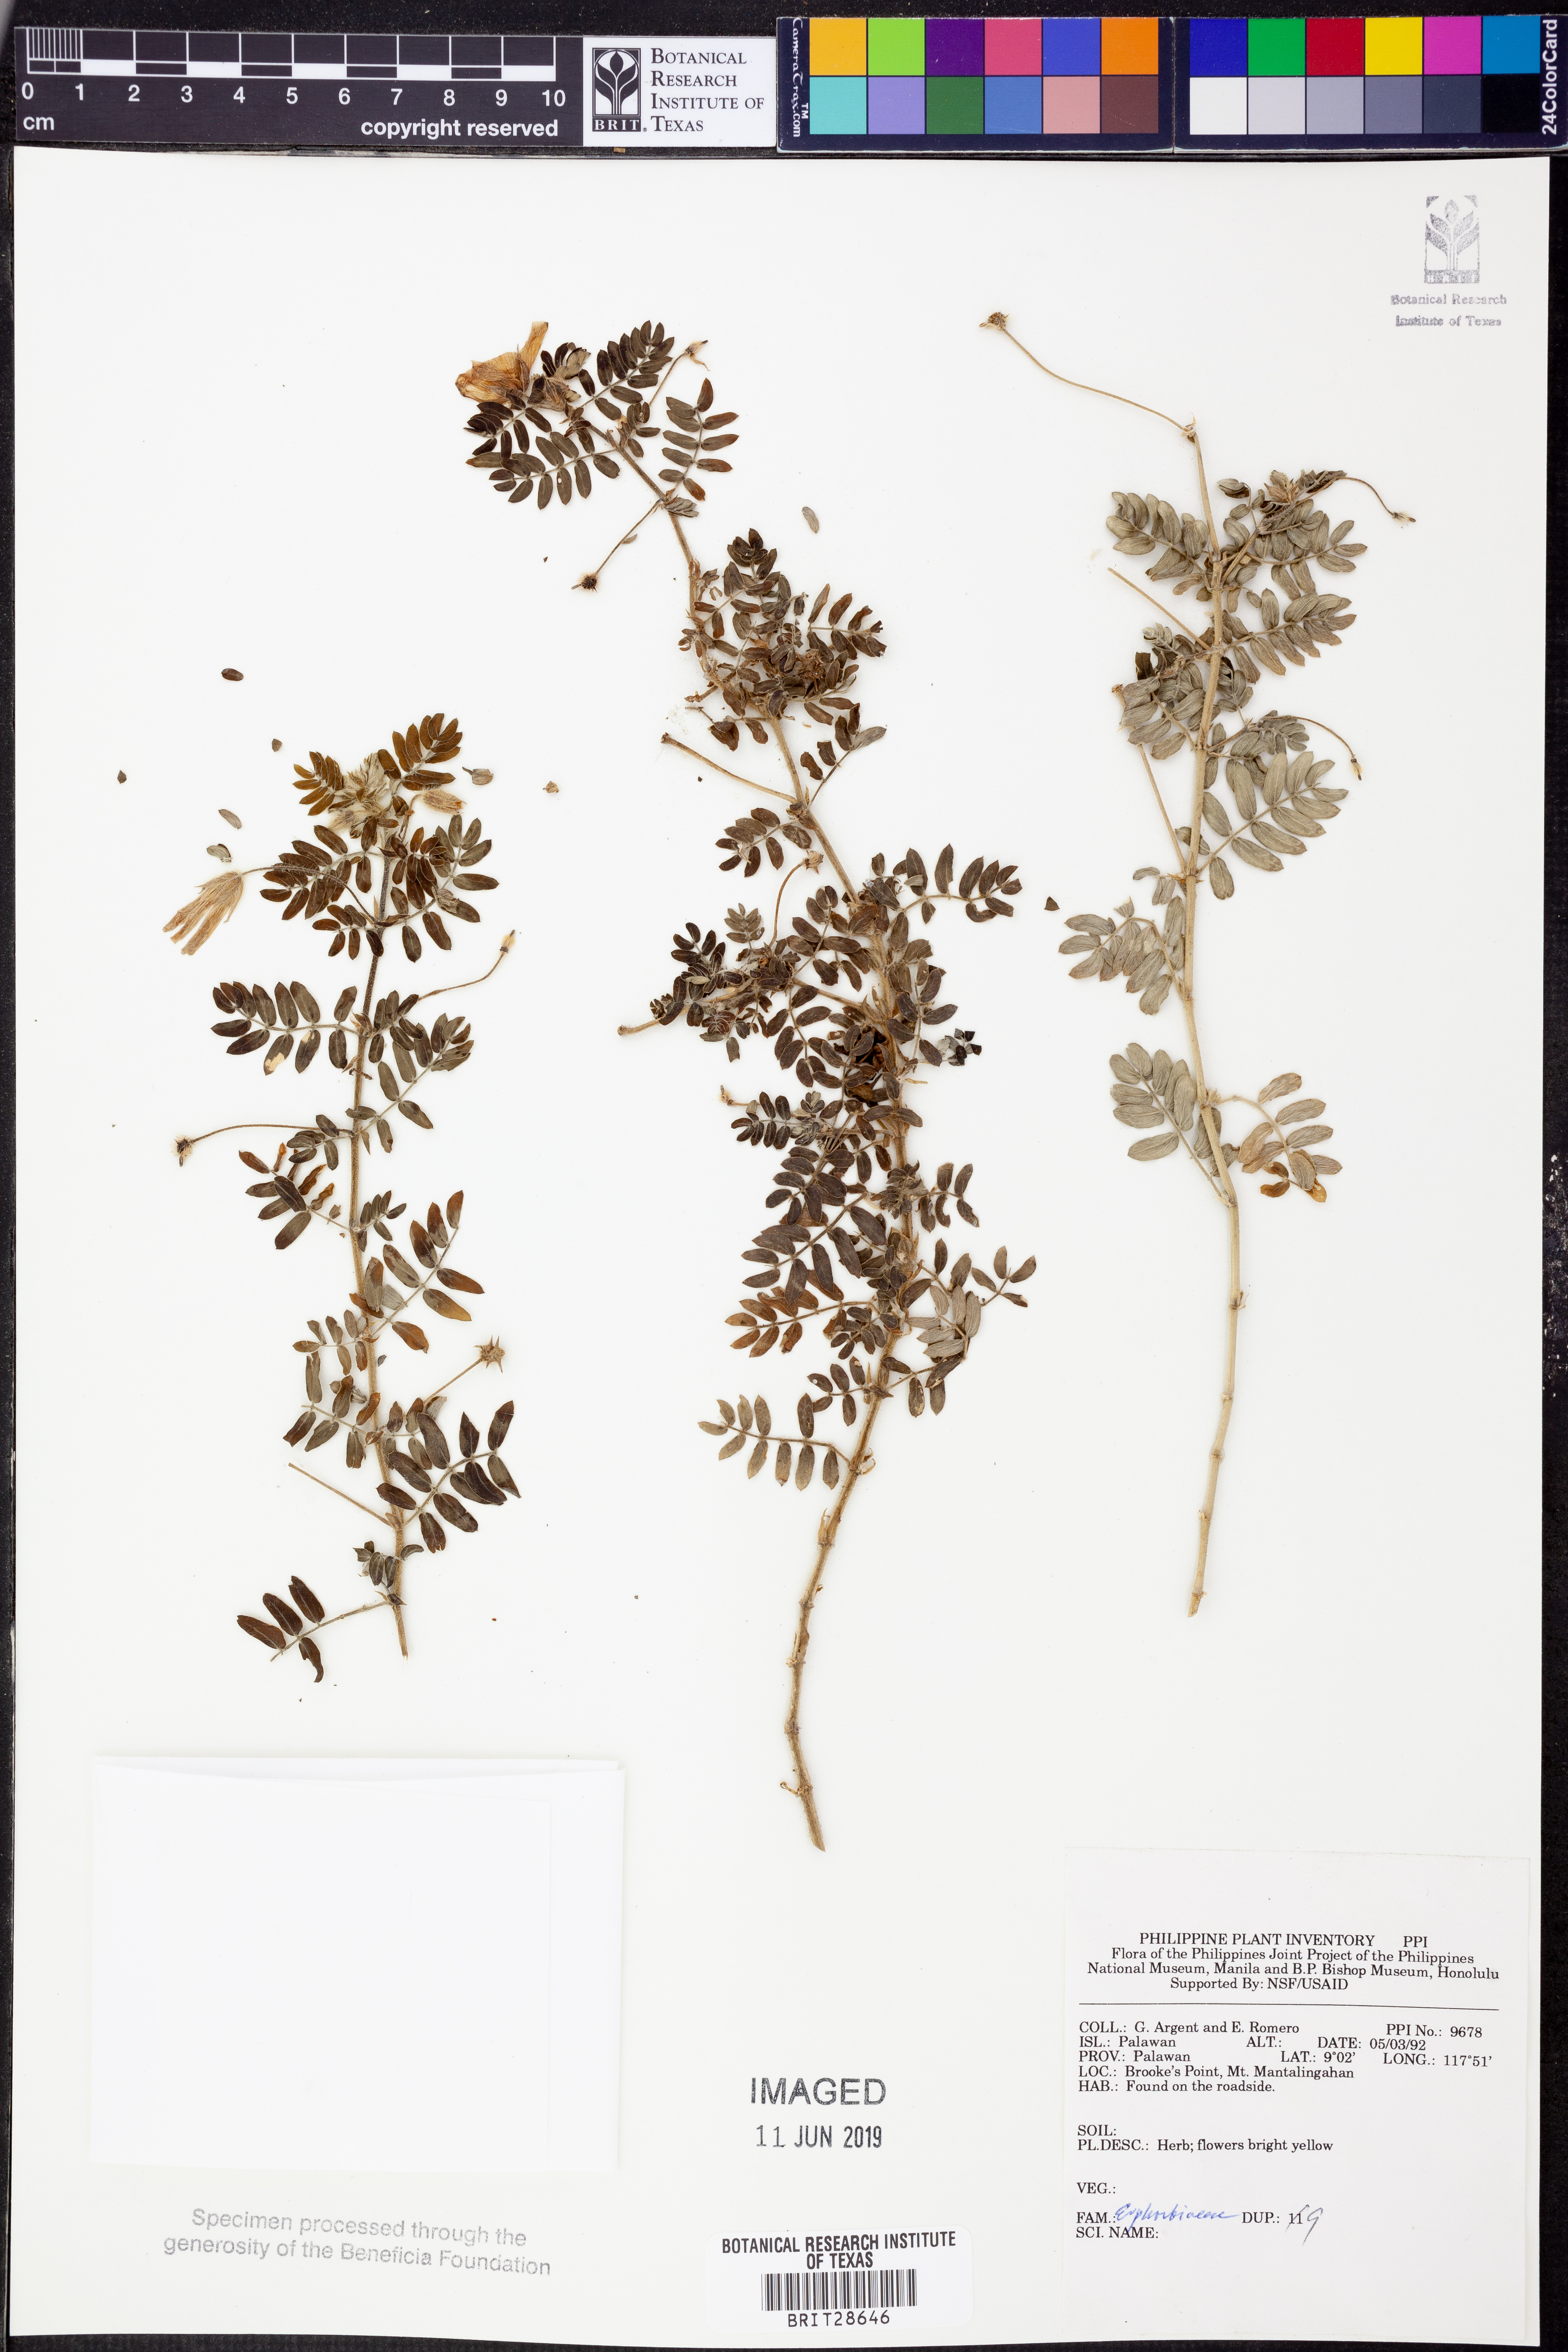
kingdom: Plantae
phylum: Tracheophyta
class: Magnoliopsida
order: Malpighiales
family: Euphorbiaceae
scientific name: Euphorbiaceae
